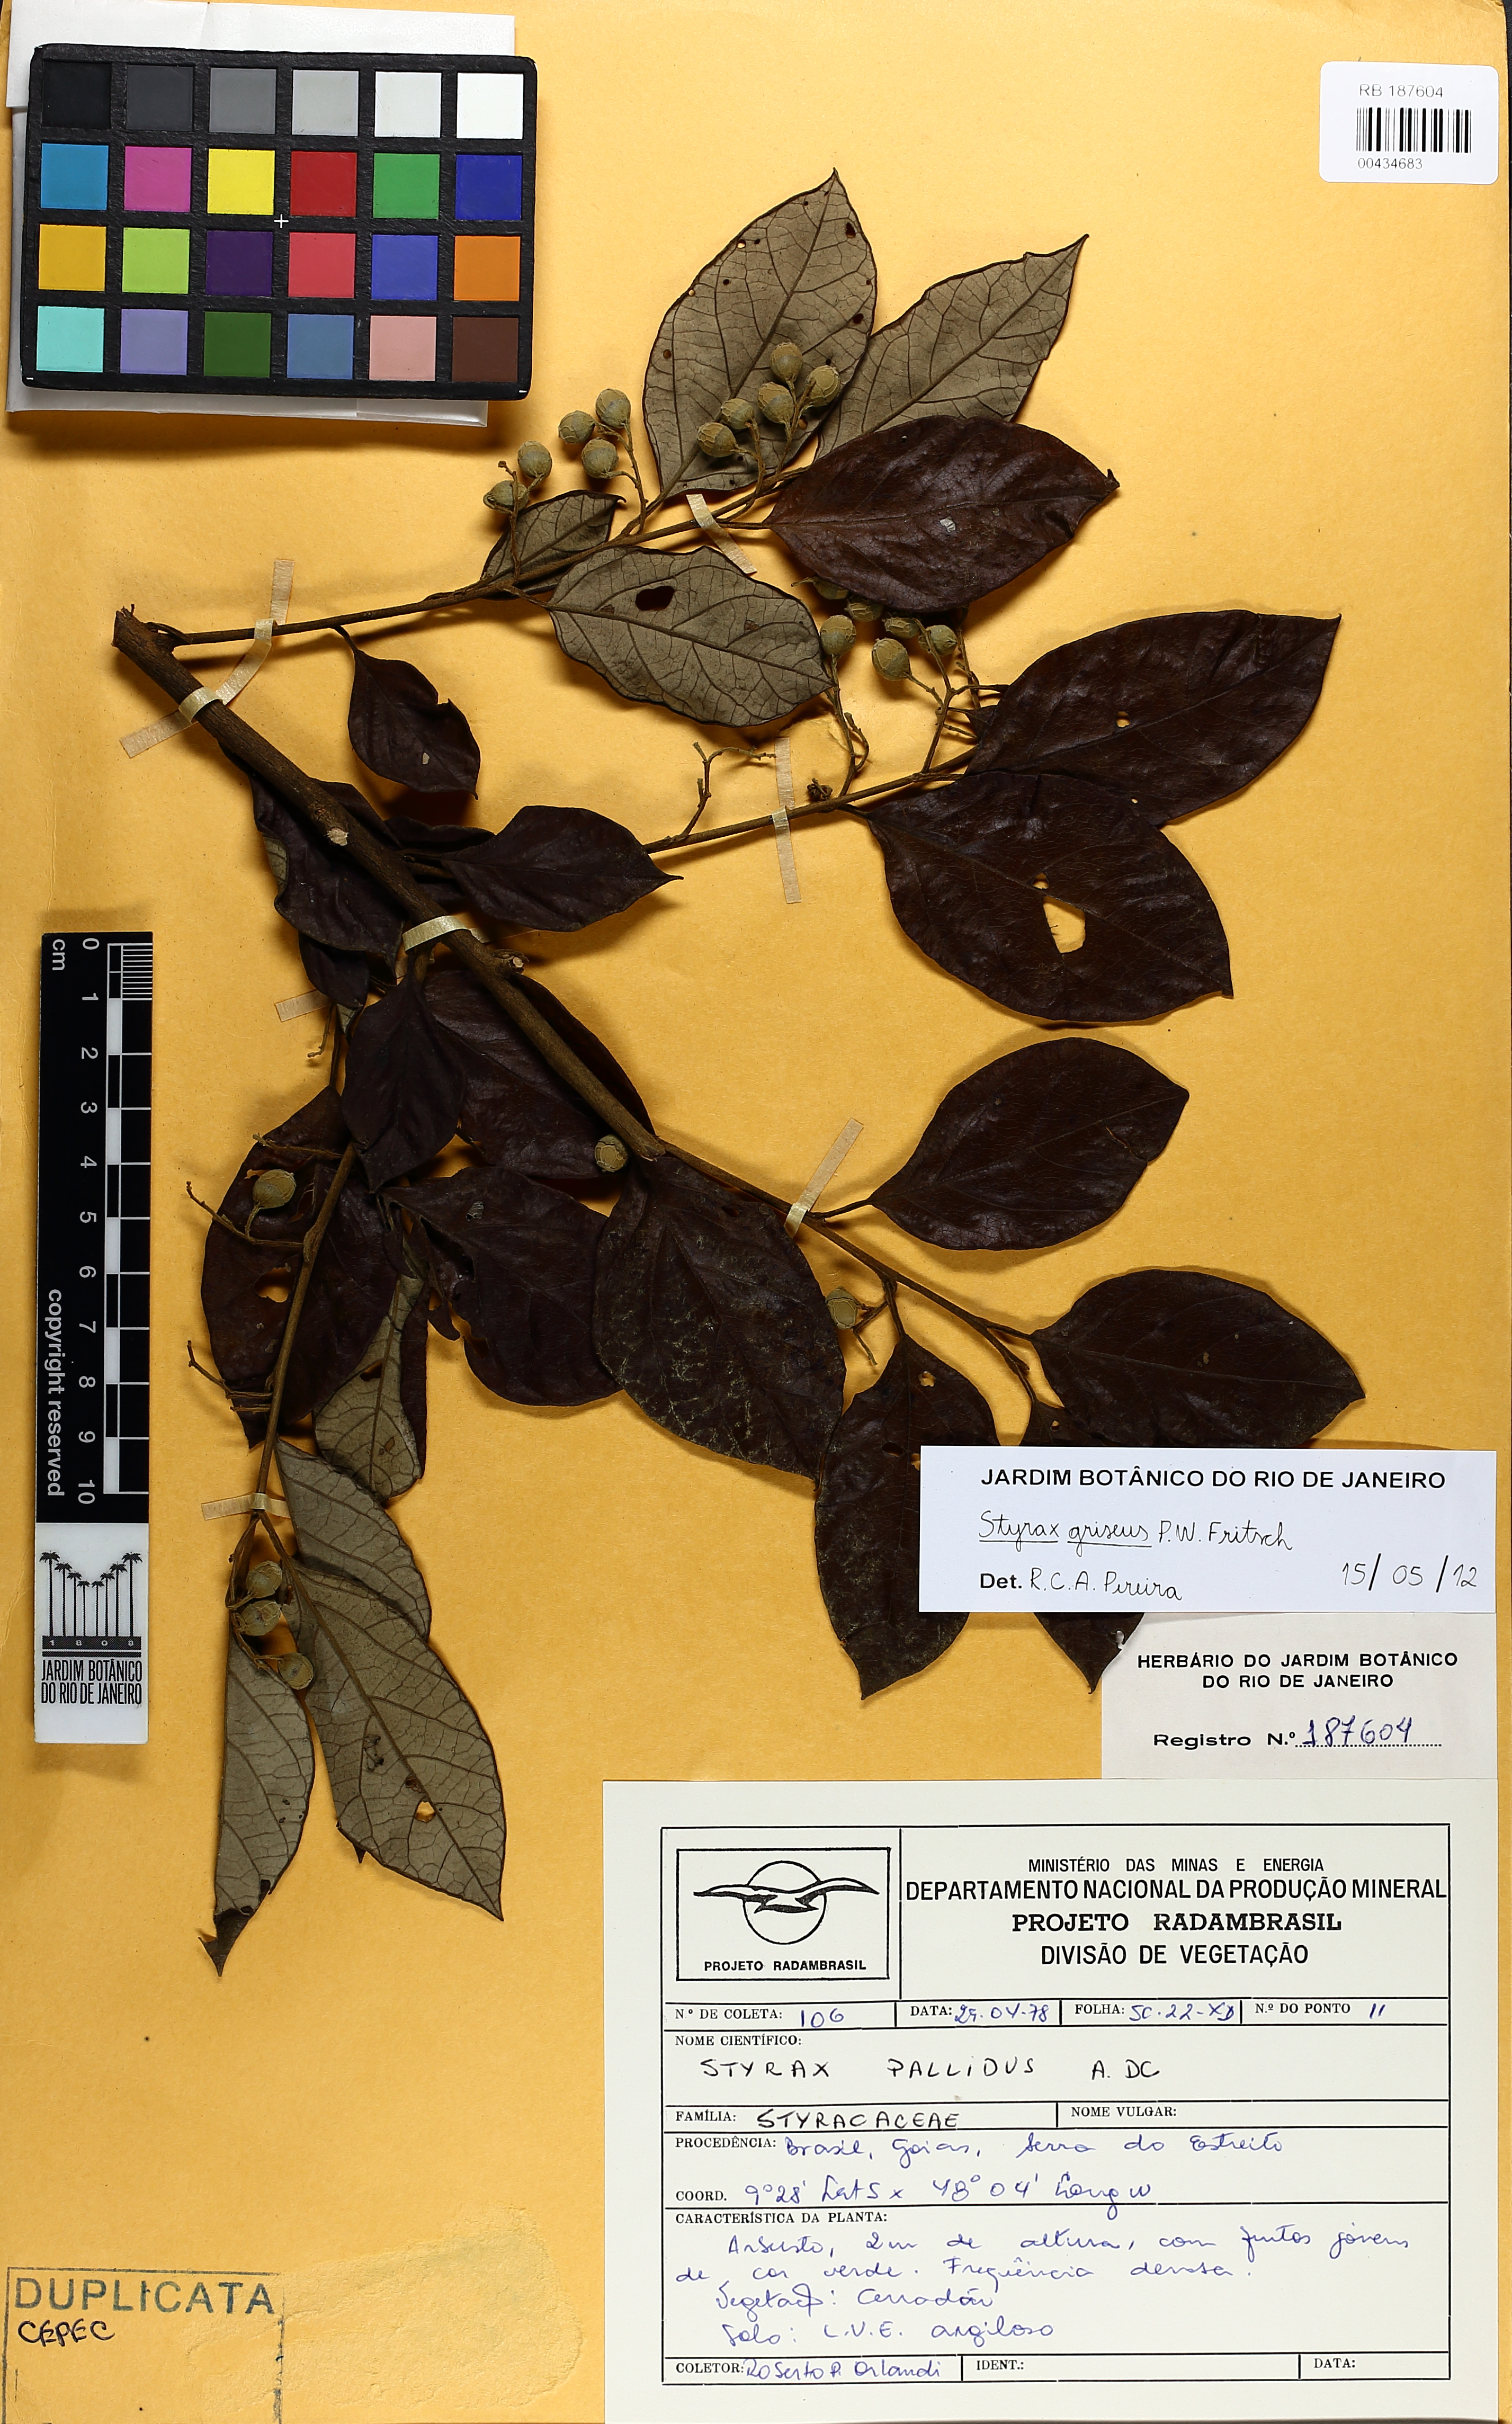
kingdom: Plantae
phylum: Tracheophyta
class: Magnoliopsida
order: Ericales
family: Styracaceae
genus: Styrax
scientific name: Styrax kuhlmannii
